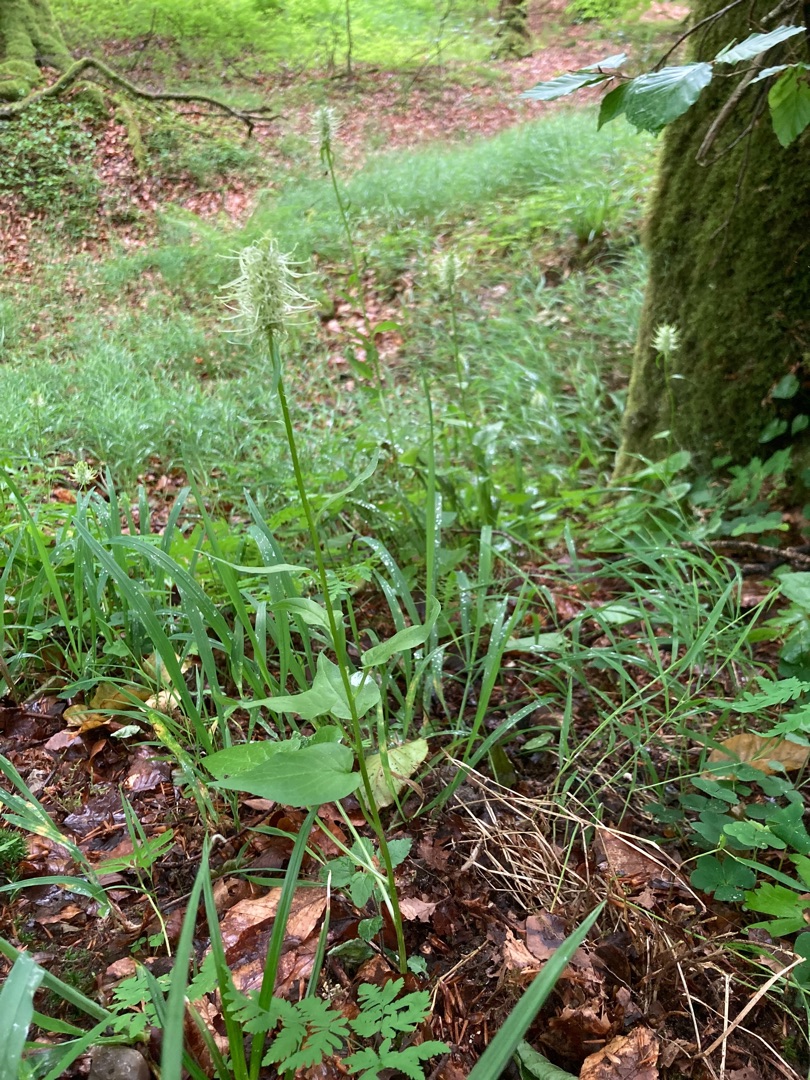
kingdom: Plantae
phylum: Tracheophyta
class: Magnoliopsida
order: Asterales
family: Campanulaceae
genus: Phyteuma
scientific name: Phyteuma spicatum
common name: Aks-rapunsel
